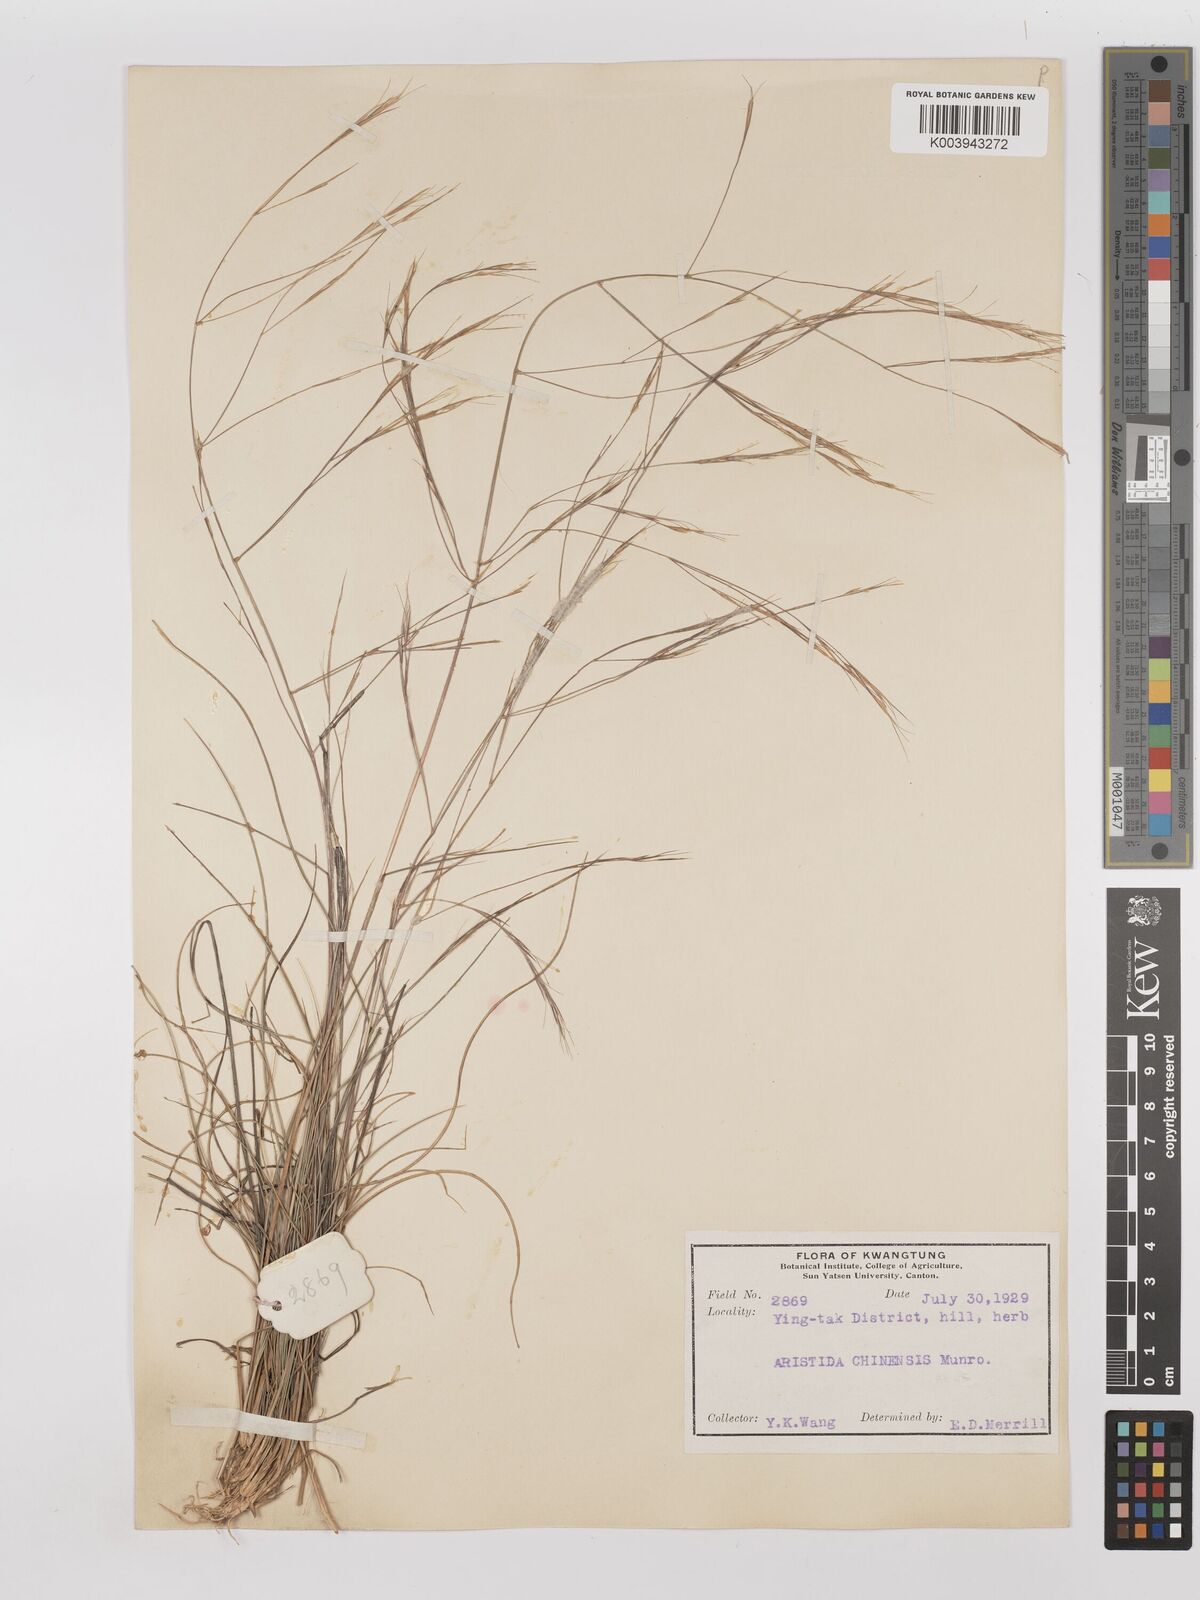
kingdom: Plantae
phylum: Tracheophyta
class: Liliopsida
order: Poales
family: Poaceae
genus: Aristida
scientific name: Aristida chinensis
